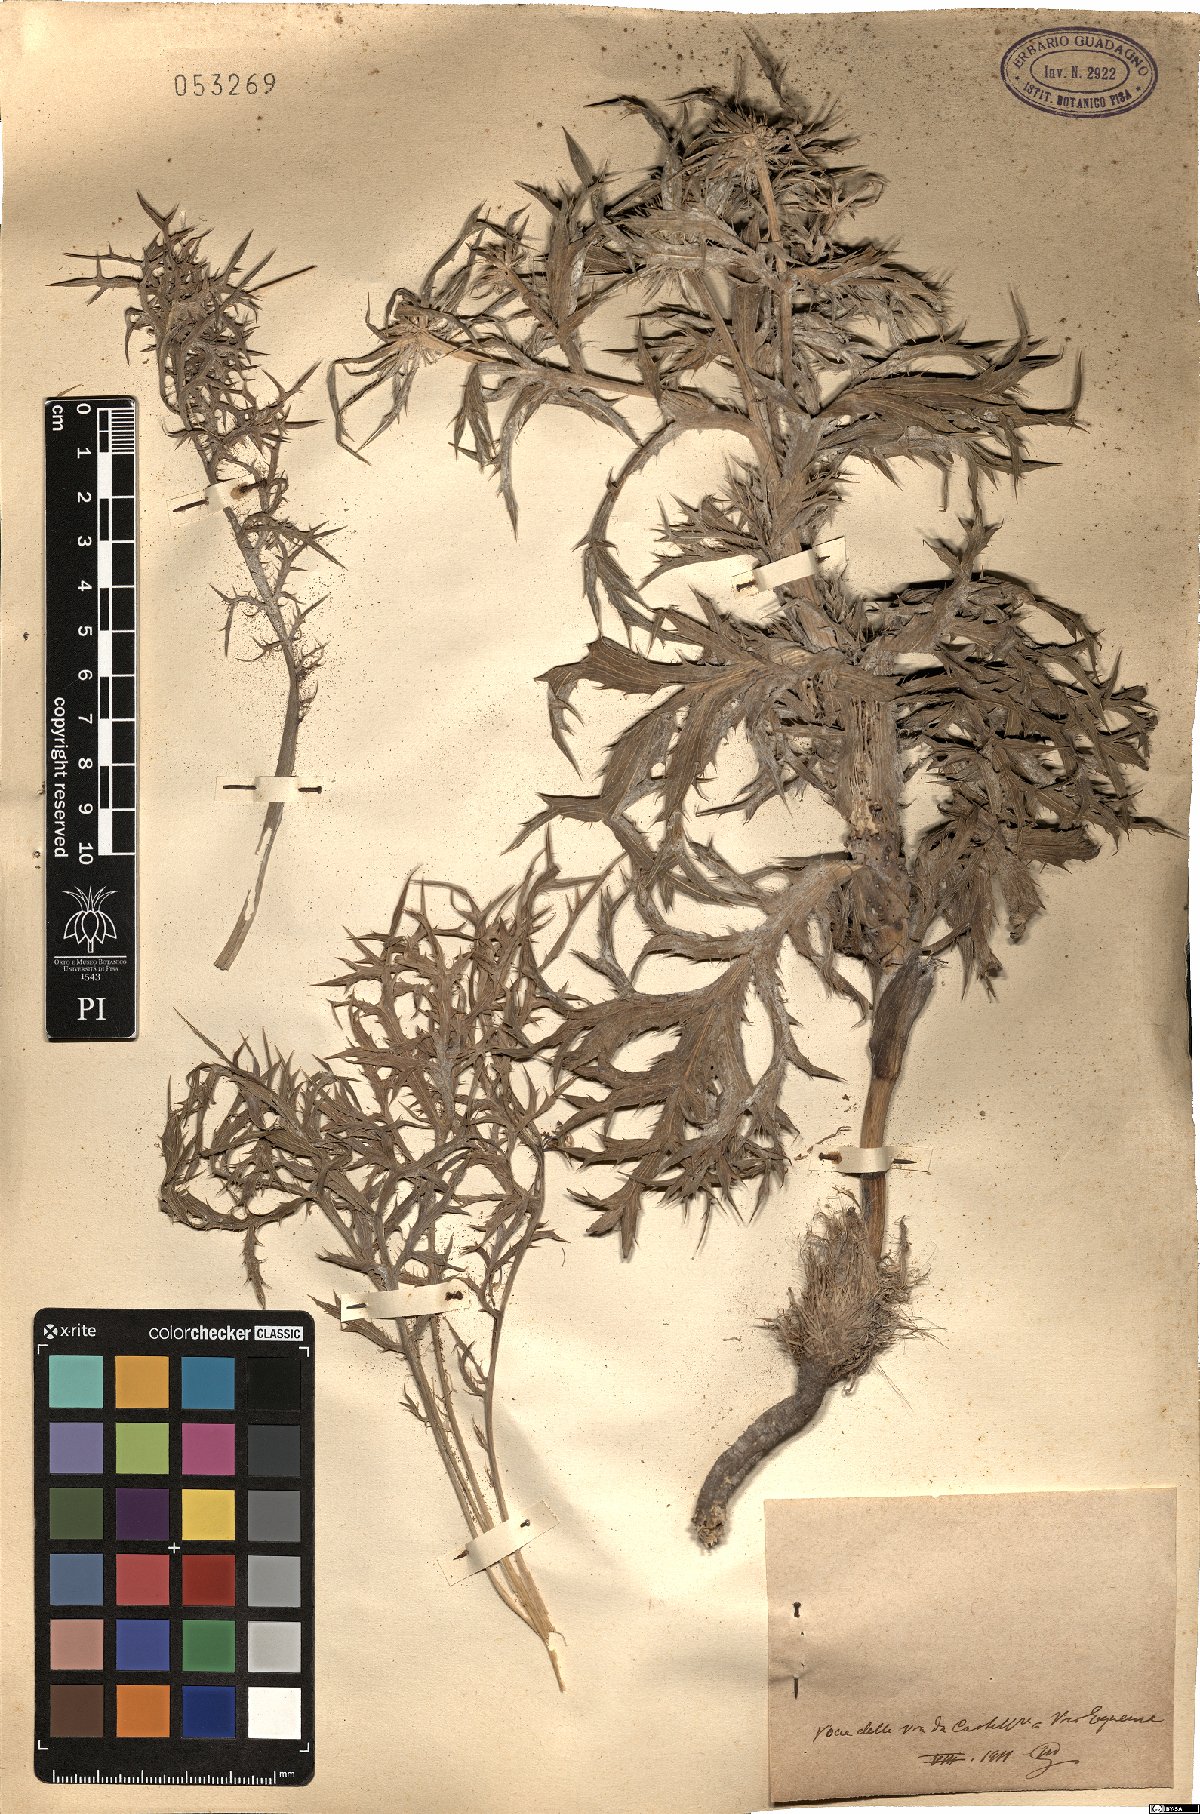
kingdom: Plantae
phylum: Tracheophyta
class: Magnoliopsida
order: Apiales
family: Apiaceae
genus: Eryngium
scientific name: Eryngium
